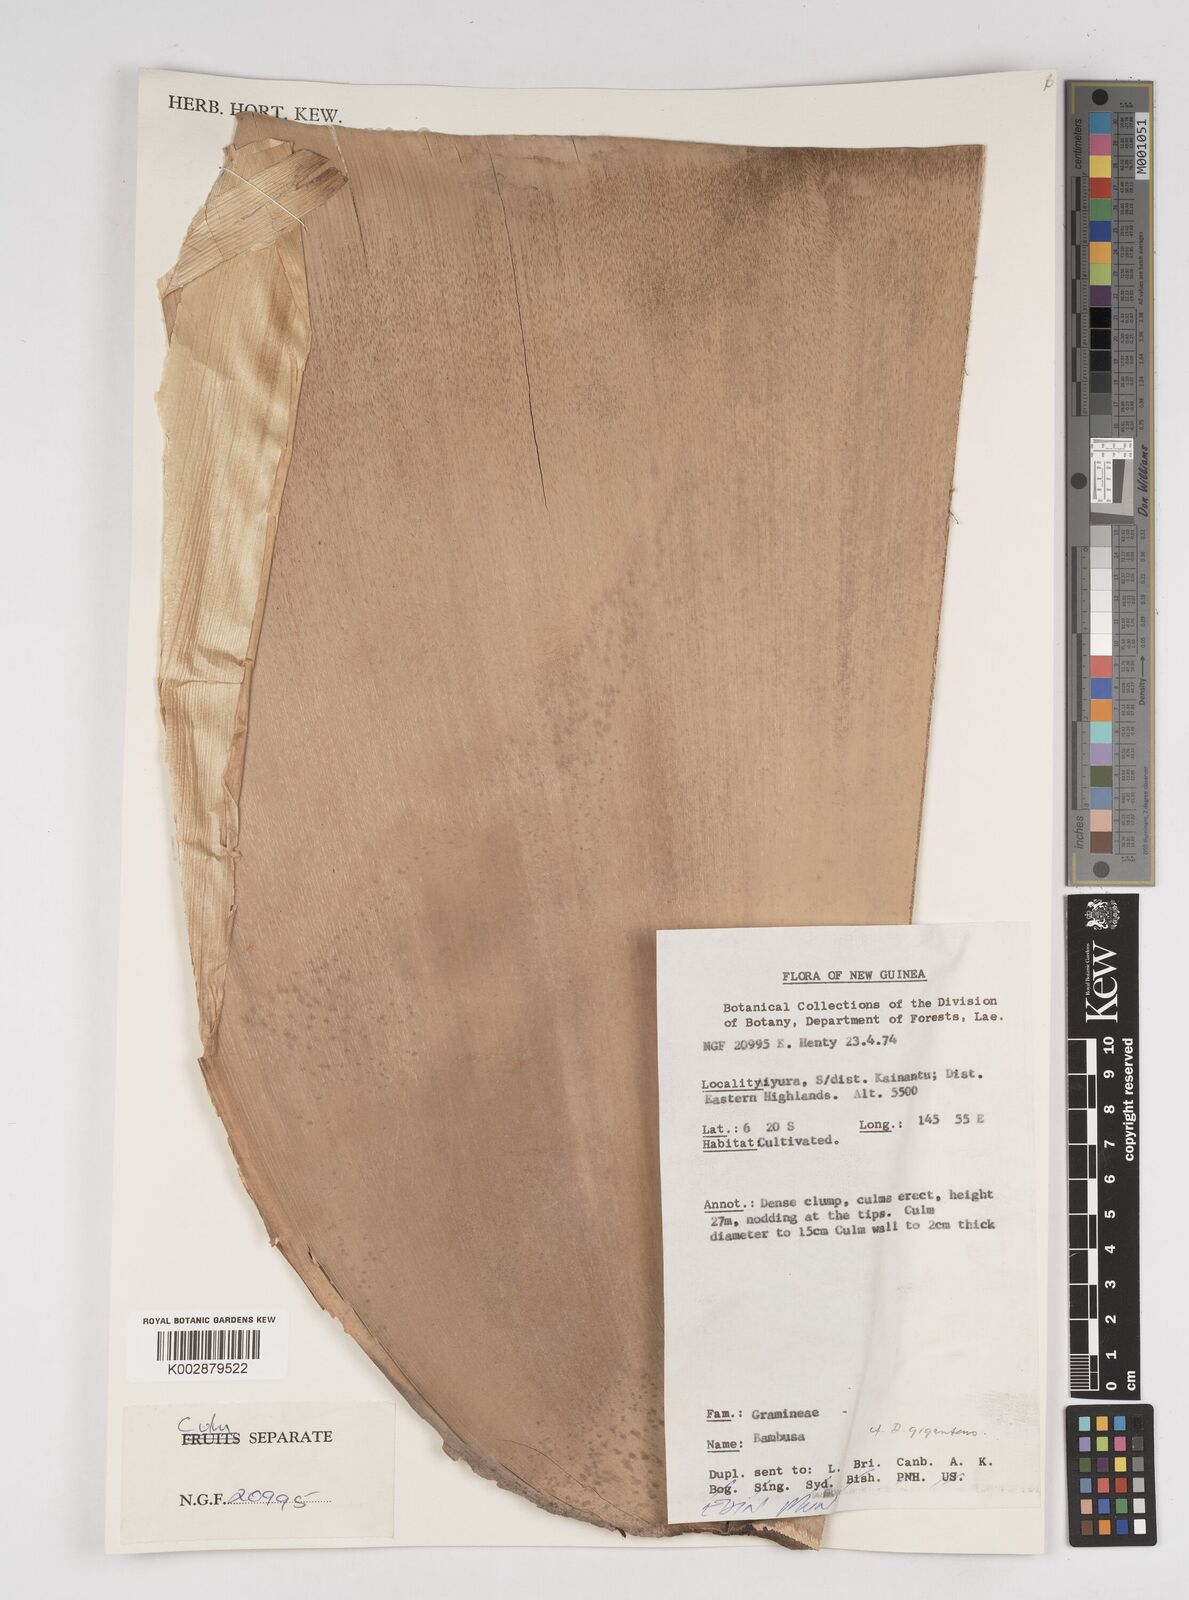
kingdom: Plantae
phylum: Tracheophyta
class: Liliopsida
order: Poales
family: Poaceae
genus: Dendrocalamus
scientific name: Dendrocalamus
